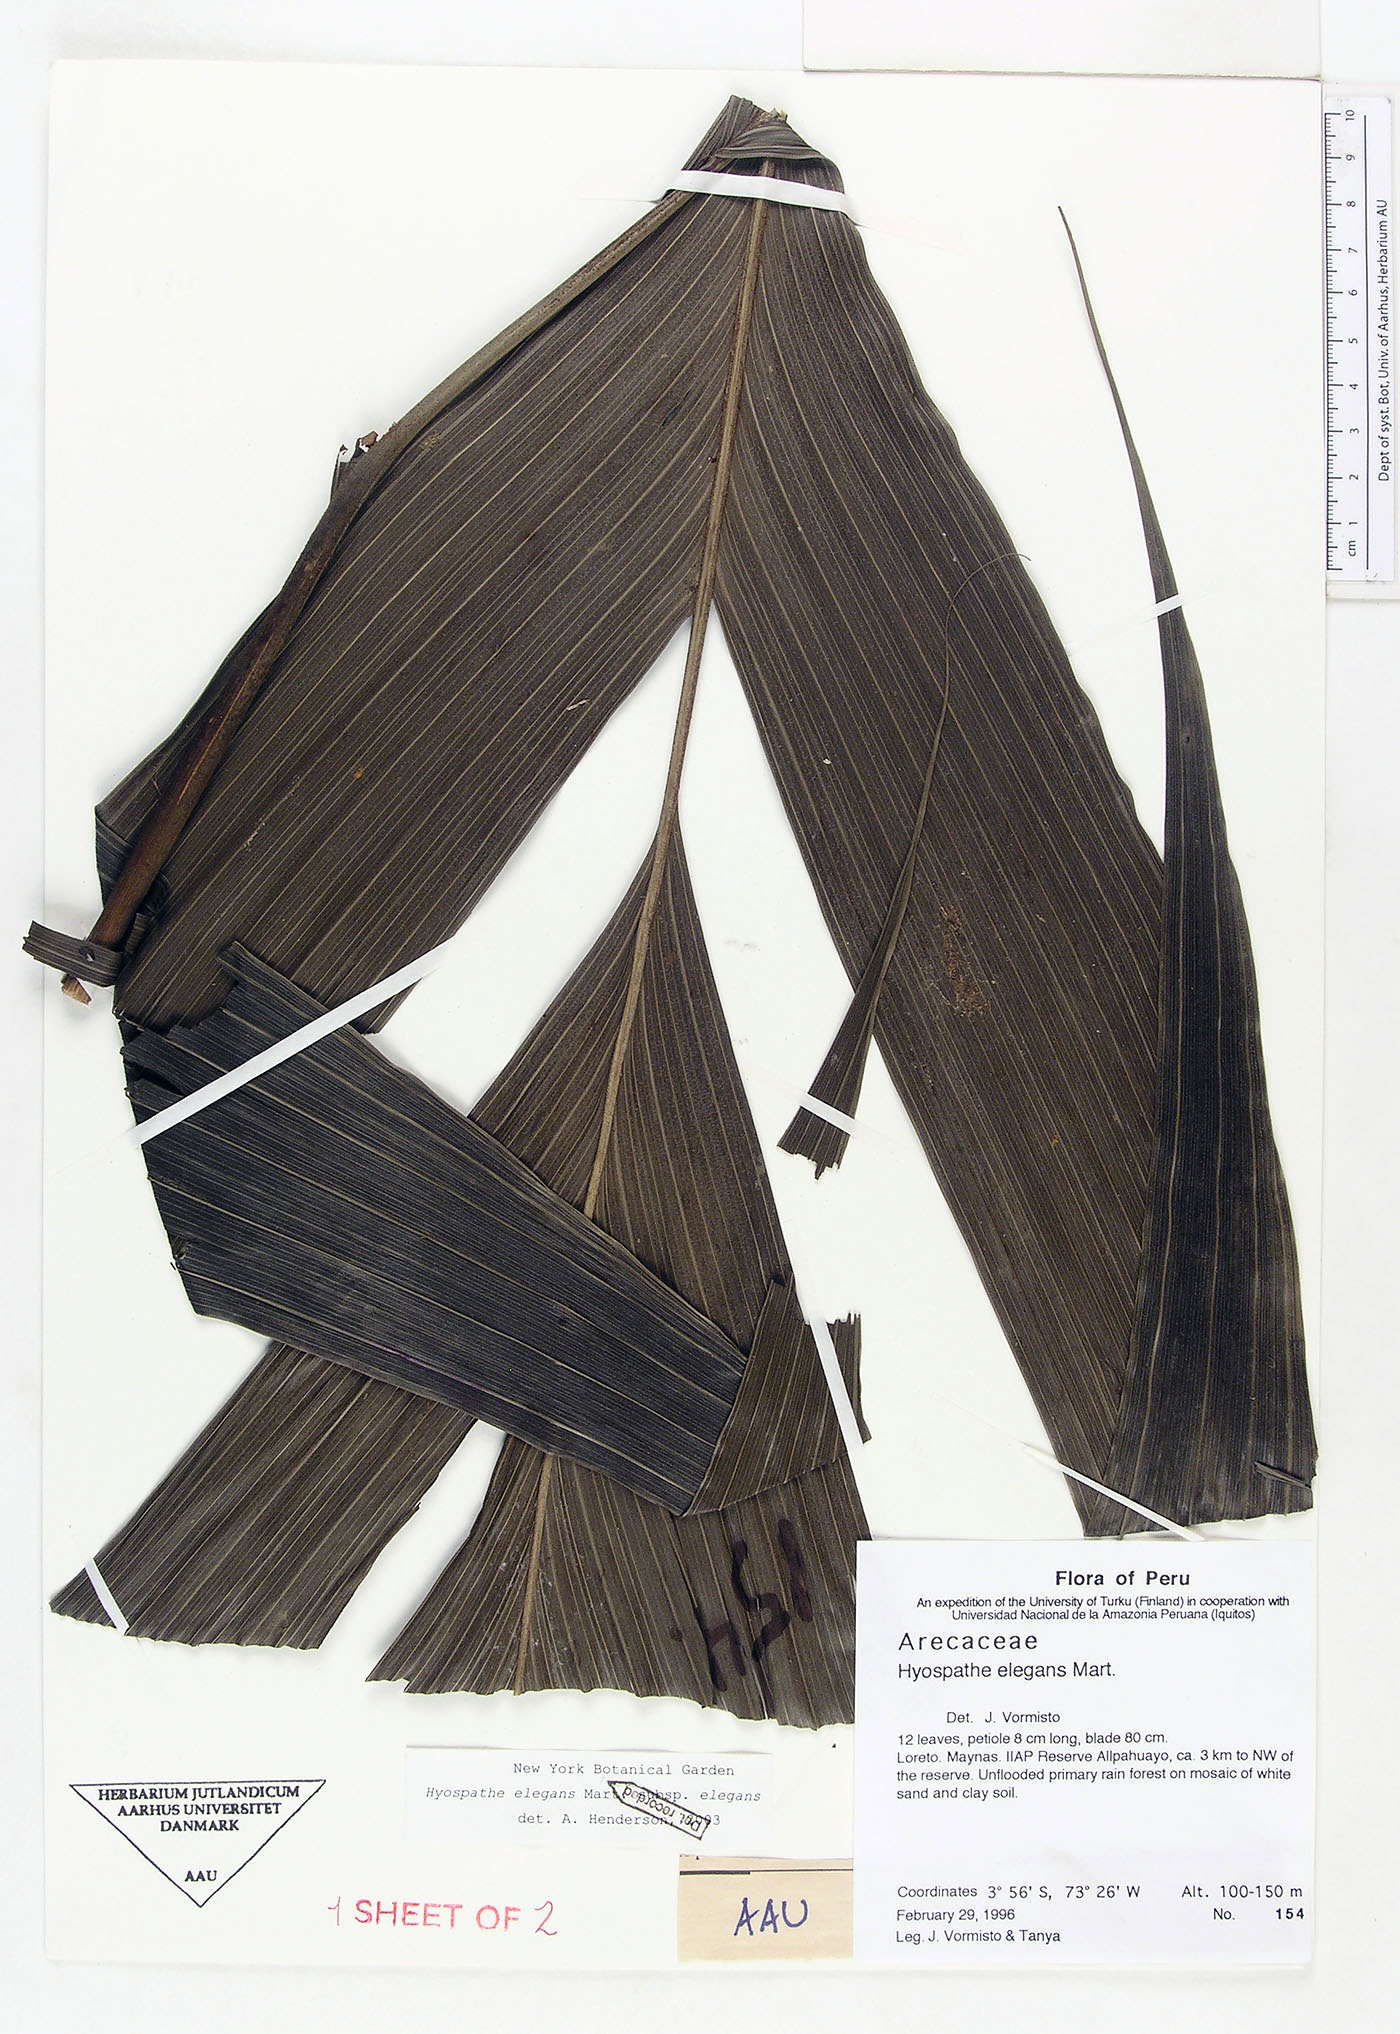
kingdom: Plantae
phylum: Tracheophyta
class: Liliopsida
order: Arecales
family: Arecaceae
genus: Hyospathe
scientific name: Hyospathe elegans
